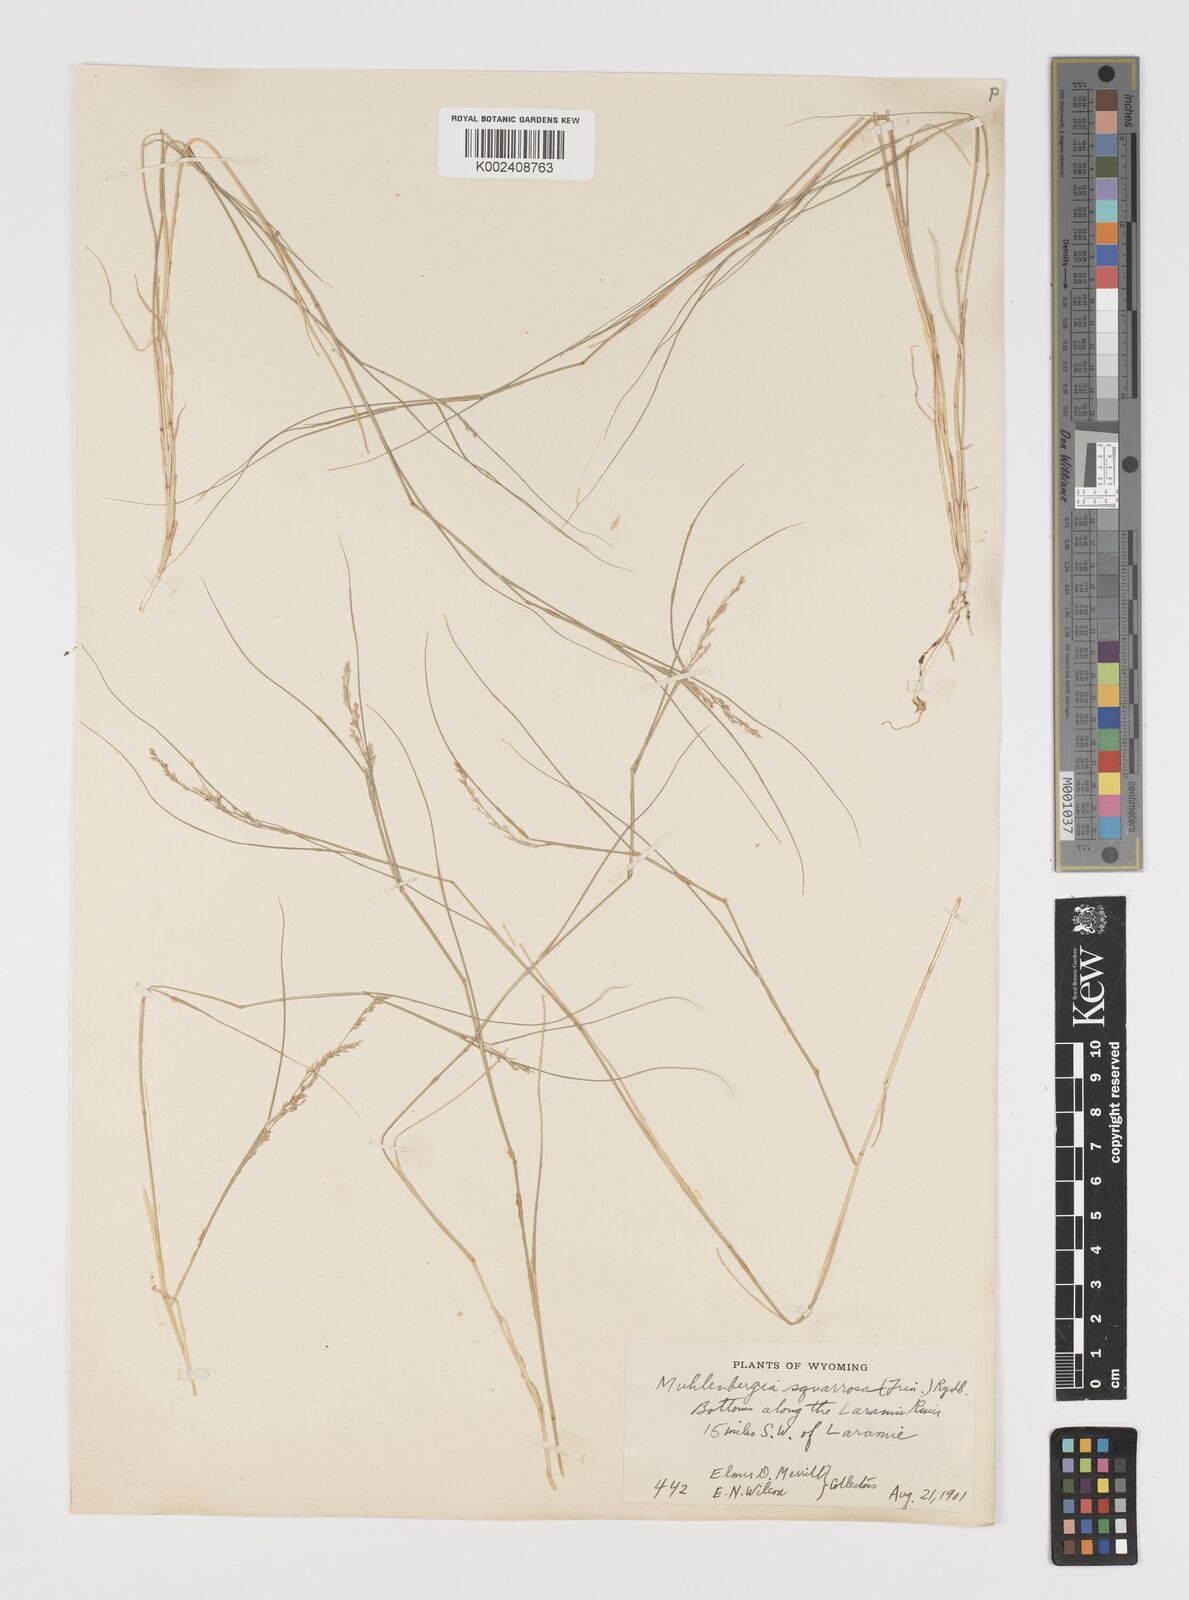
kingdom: Plantae
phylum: Tracheophyta
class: Liliopsida
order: Poales
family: Poaceae
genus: Muhlenbergia
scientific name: Muhlenbergia richardsonis
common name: Mat muhly
